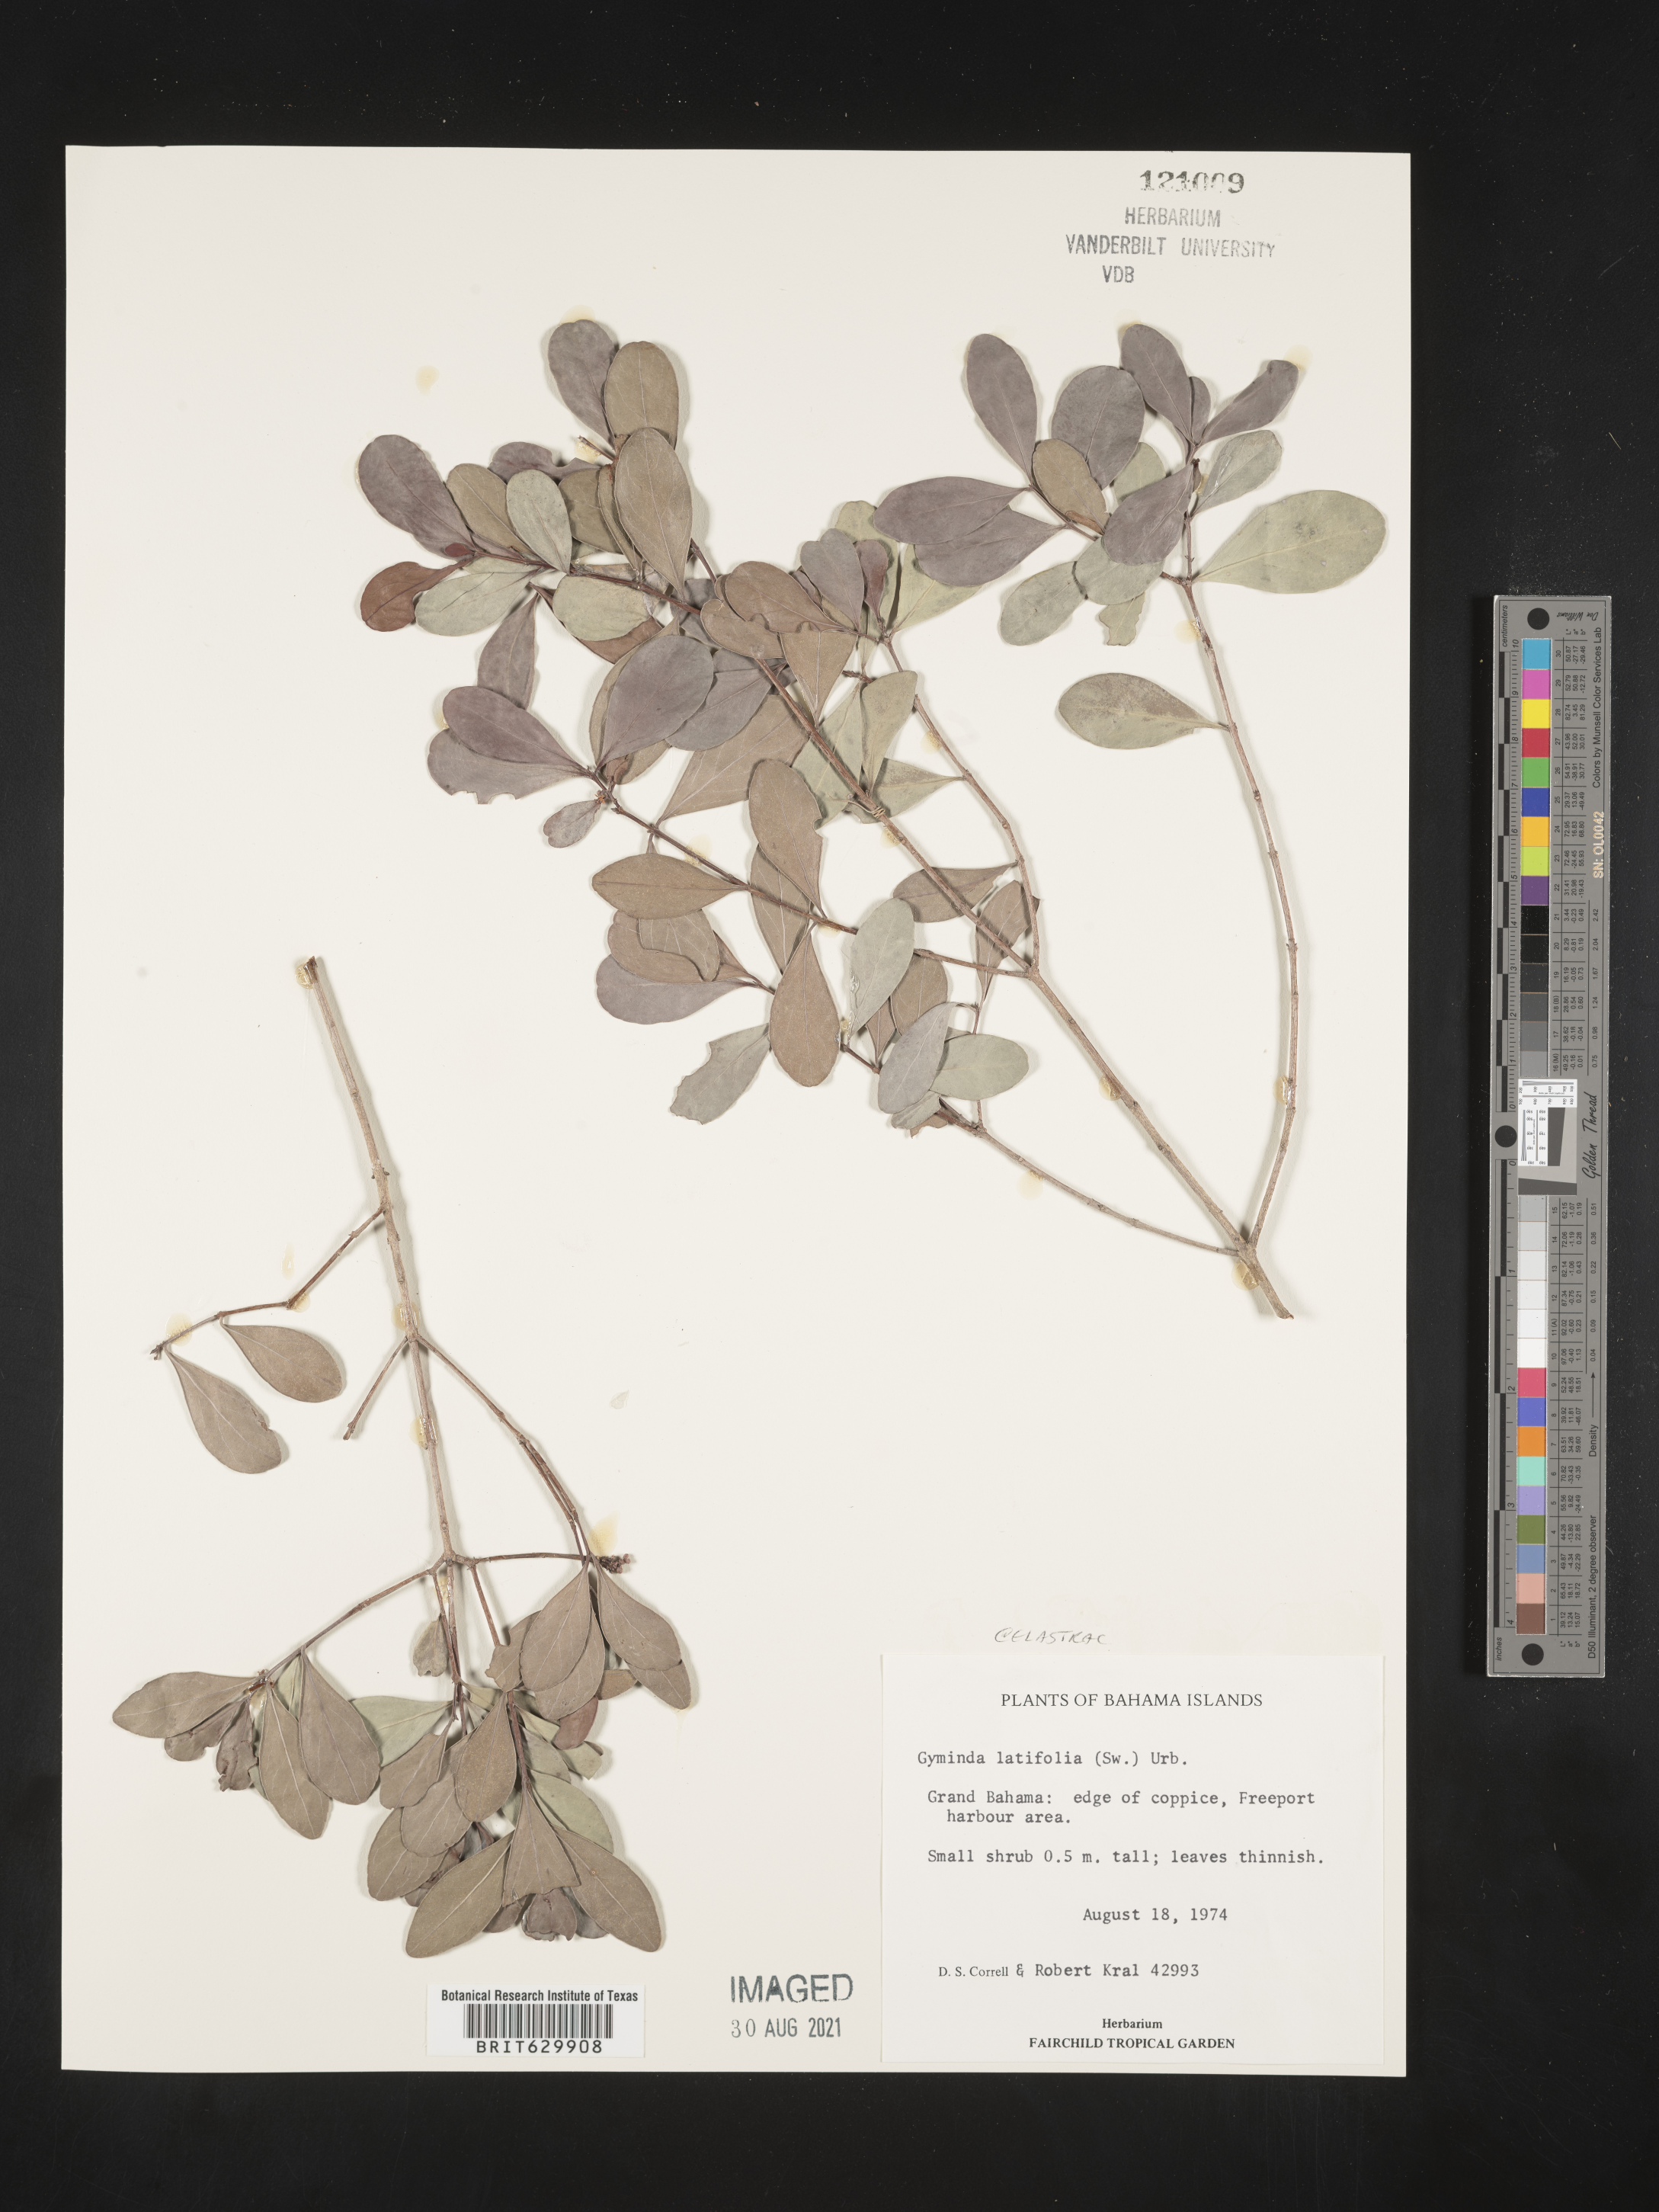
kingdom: Plantae
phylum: Tracheophyta
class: Magnoliopsida
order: Celastrales
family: Celastraceae
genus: Gyminda
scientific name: Gyminda latifolia
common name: False boxwood
